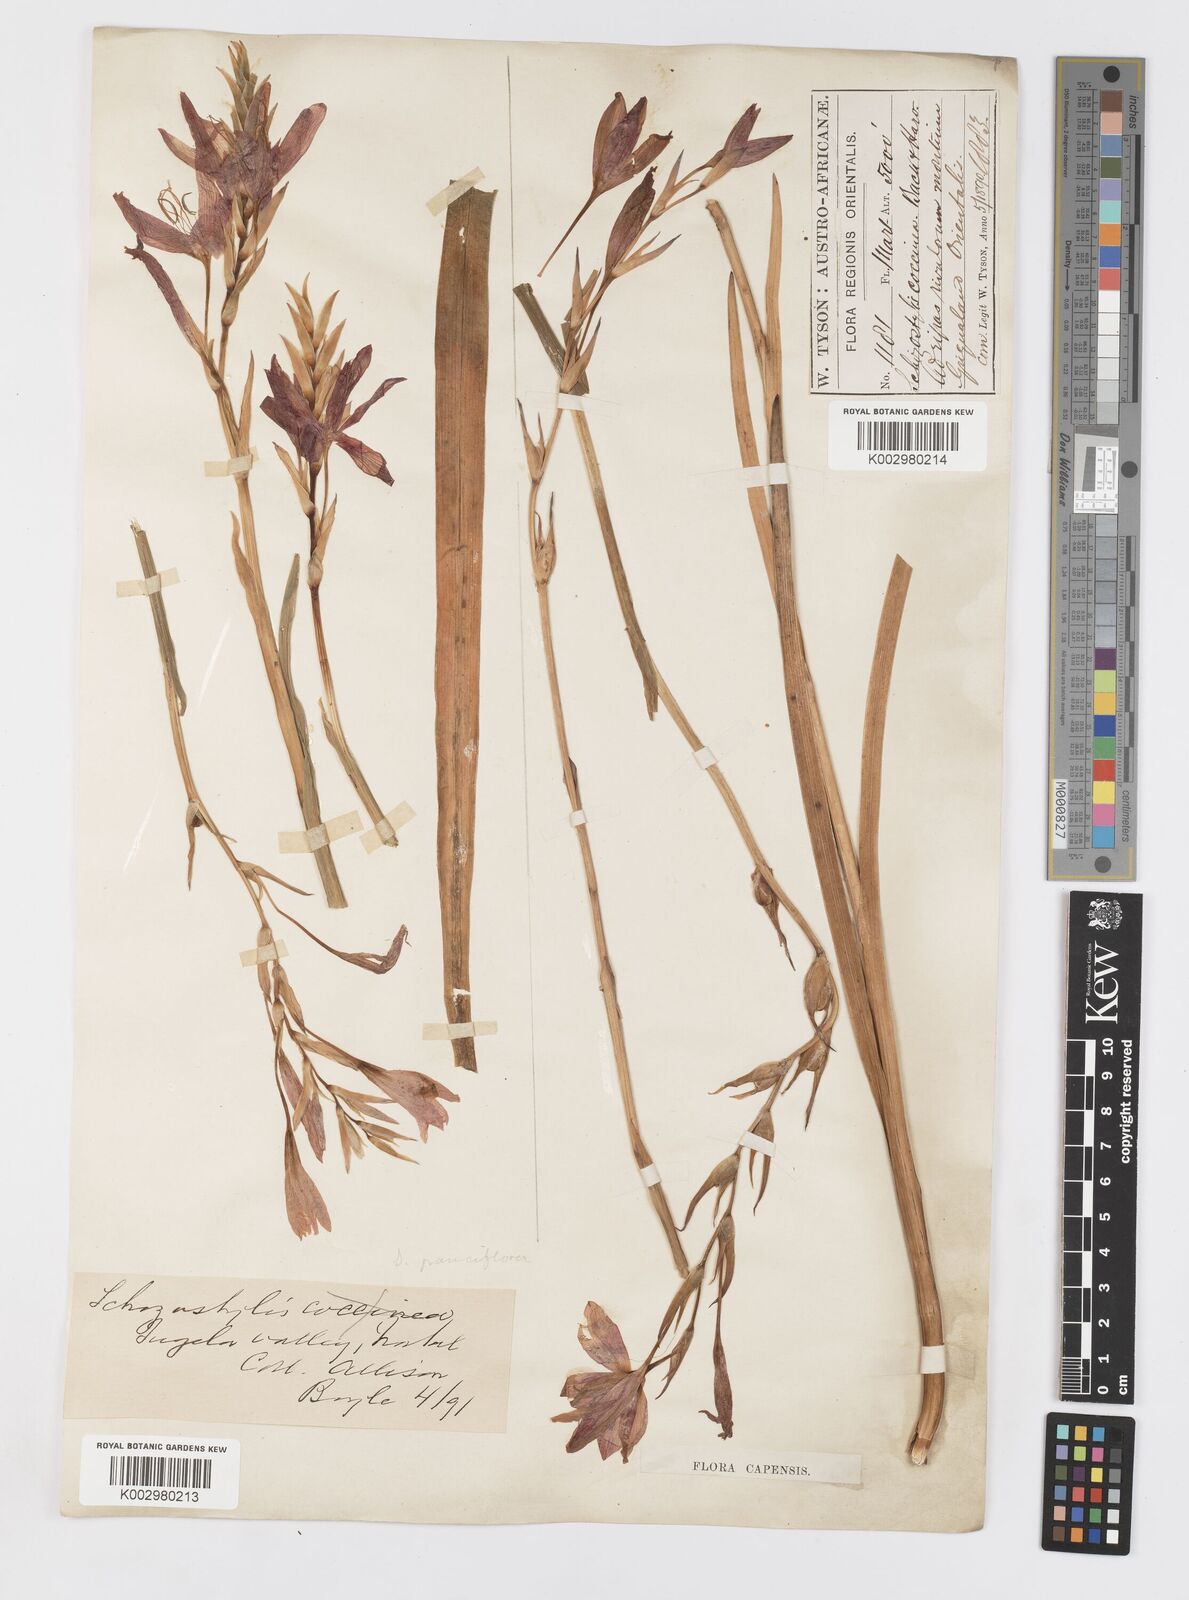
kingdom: Plantae
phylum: Tracheophyta
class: Liliopsida
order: Asparagales
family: Iridaceae
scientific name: Iridaceae
